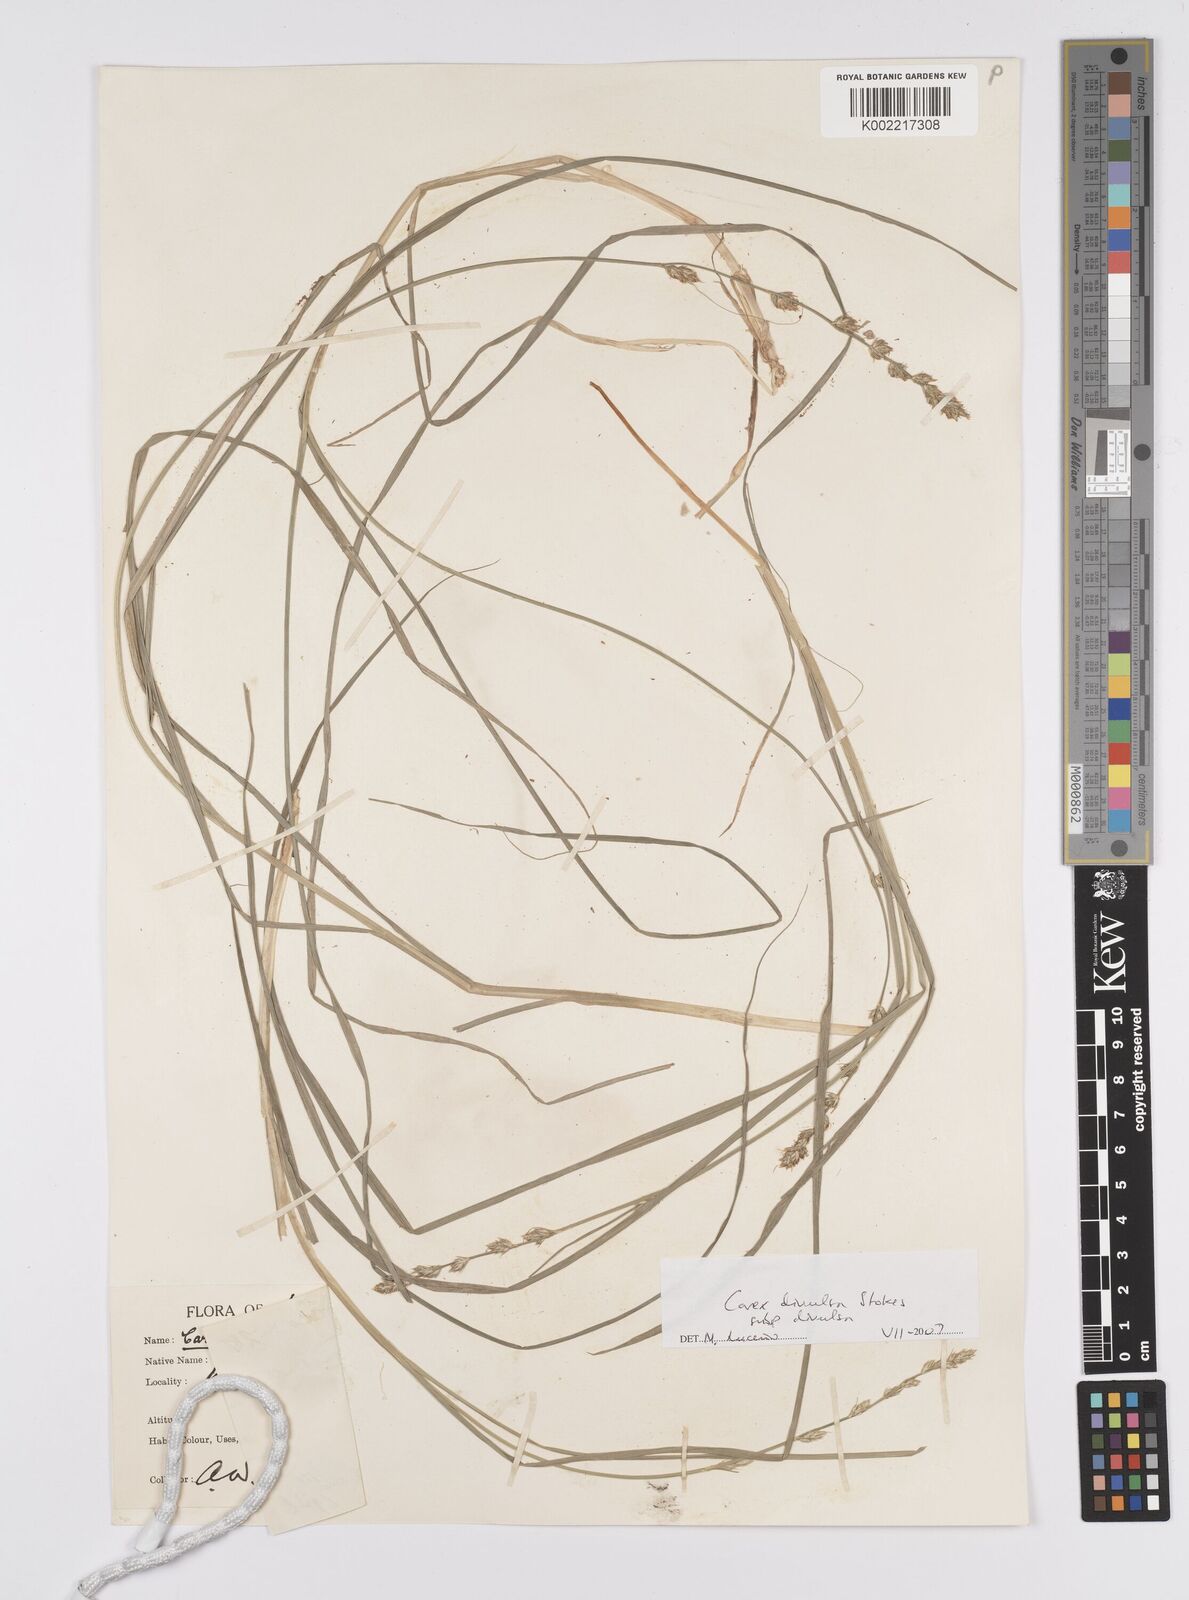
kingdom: Plantae
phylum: Tracheophyta
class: Liliopsida
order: Poales
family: Cyperaceae
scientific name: Cyperaceae
